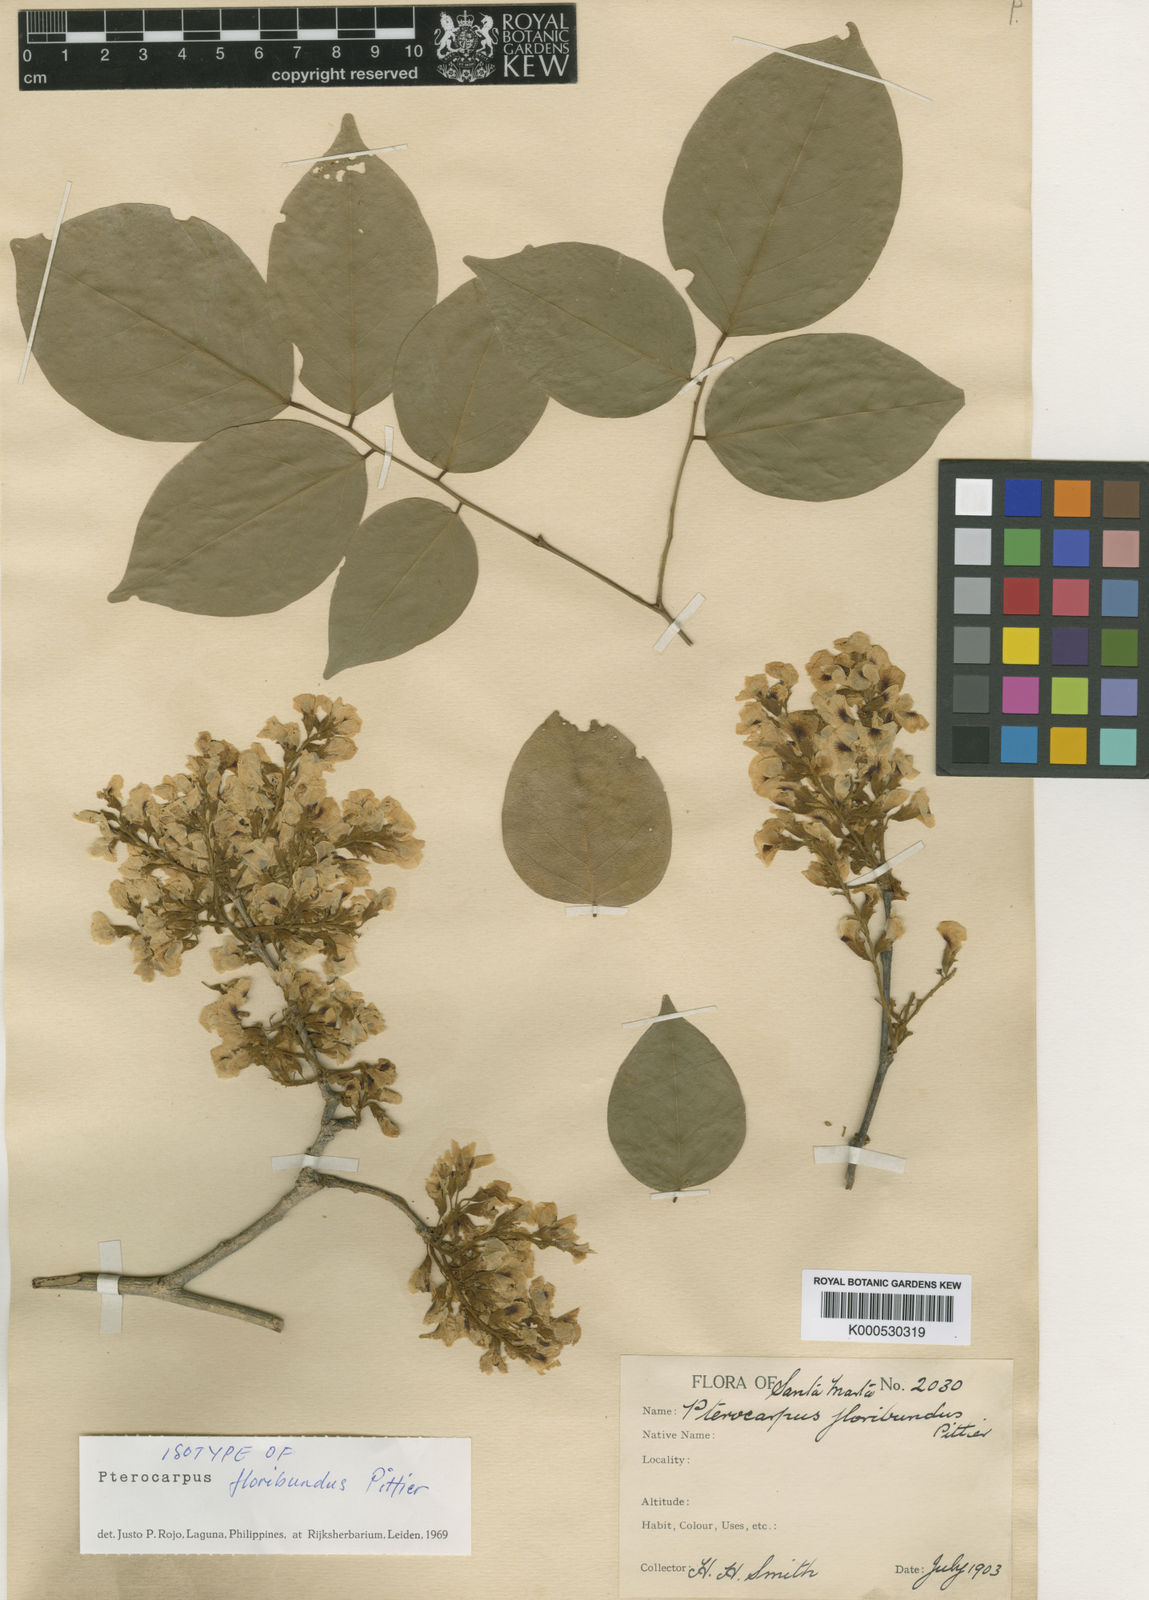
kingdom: Plantae
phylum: Tracheophyta
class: Magnoliopsida
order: Fabales
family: Fabaceae
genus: Pterocarpus
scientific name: Pterocarpus rohrii
